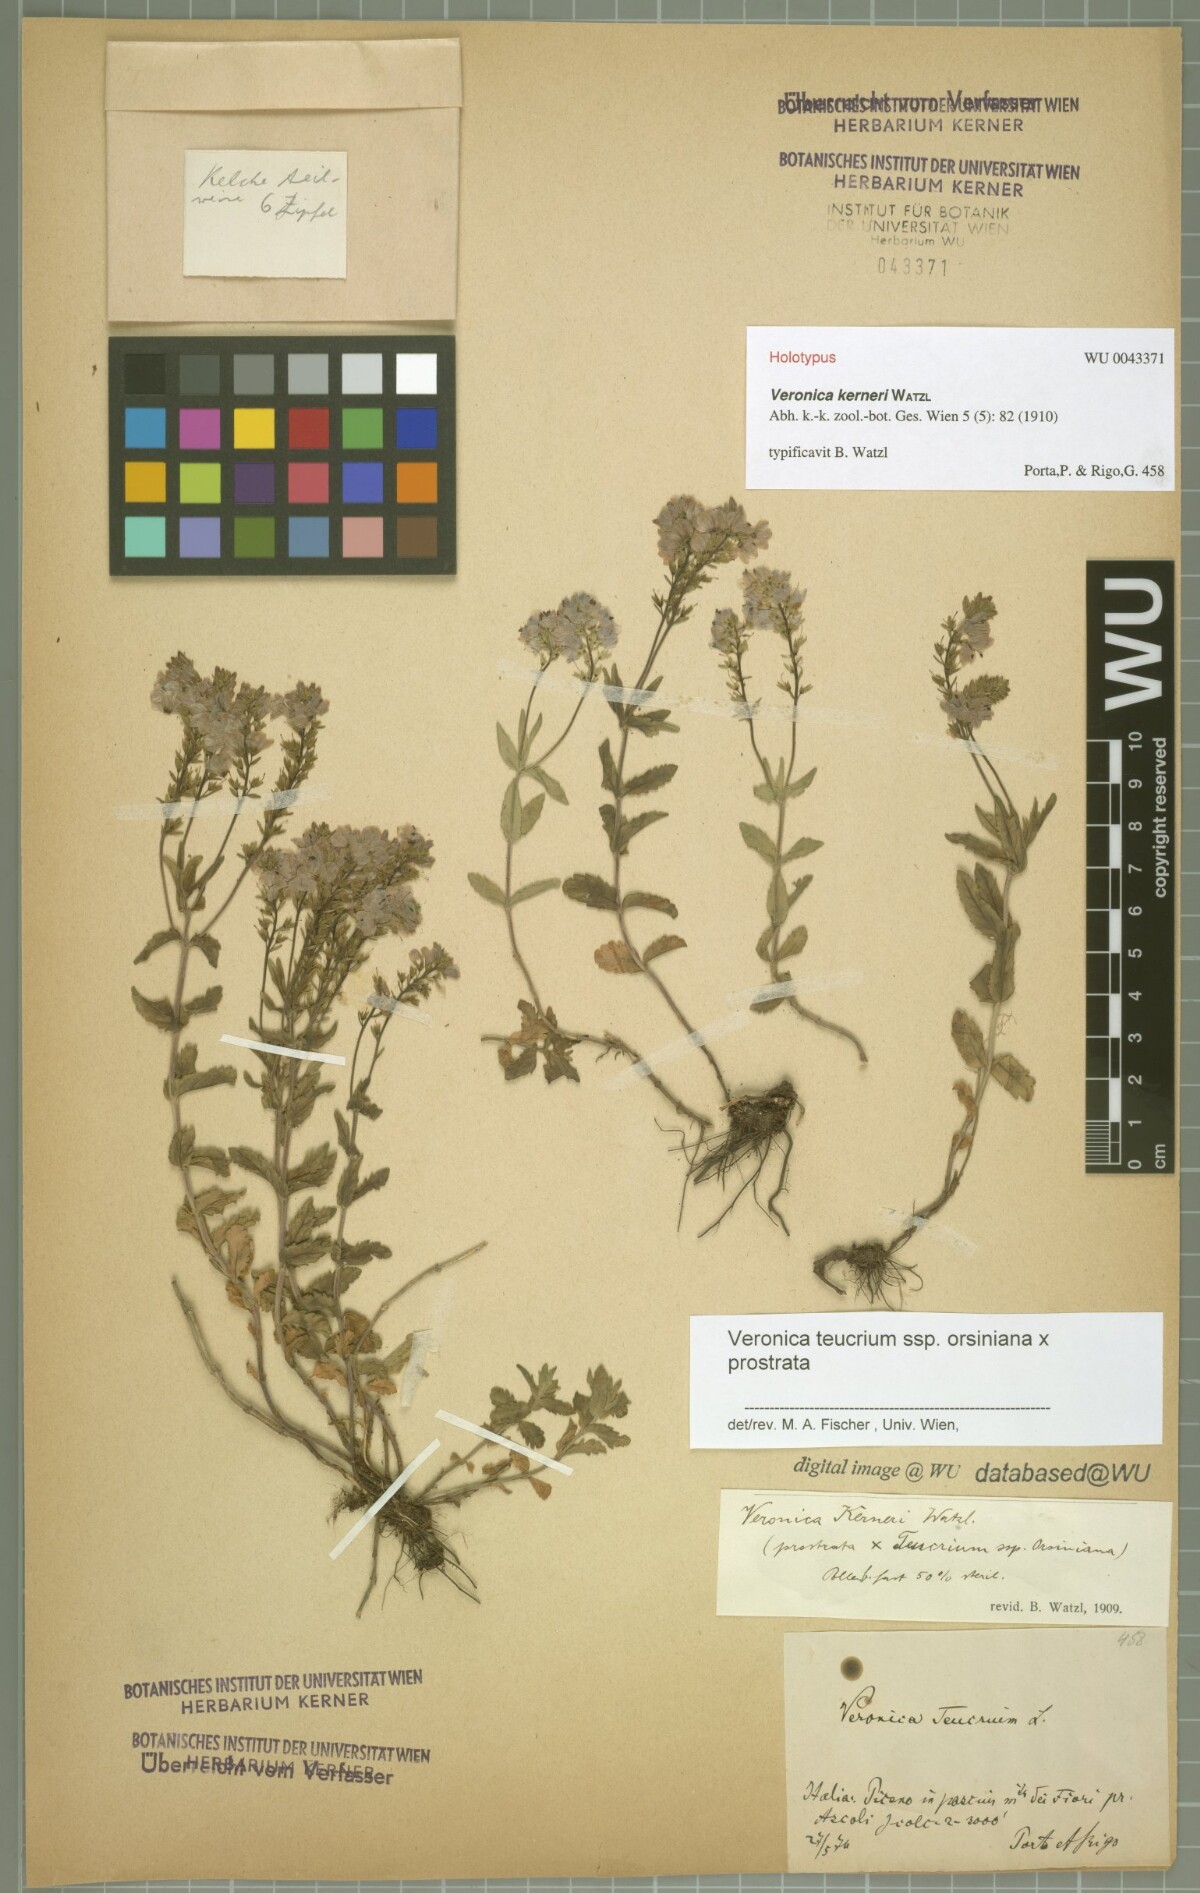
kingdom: Plantae
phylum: Tracheophyta
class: Magnoliopsida
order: Lamiales
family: Scrophulariaceae
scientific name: Scrophulariaceae
